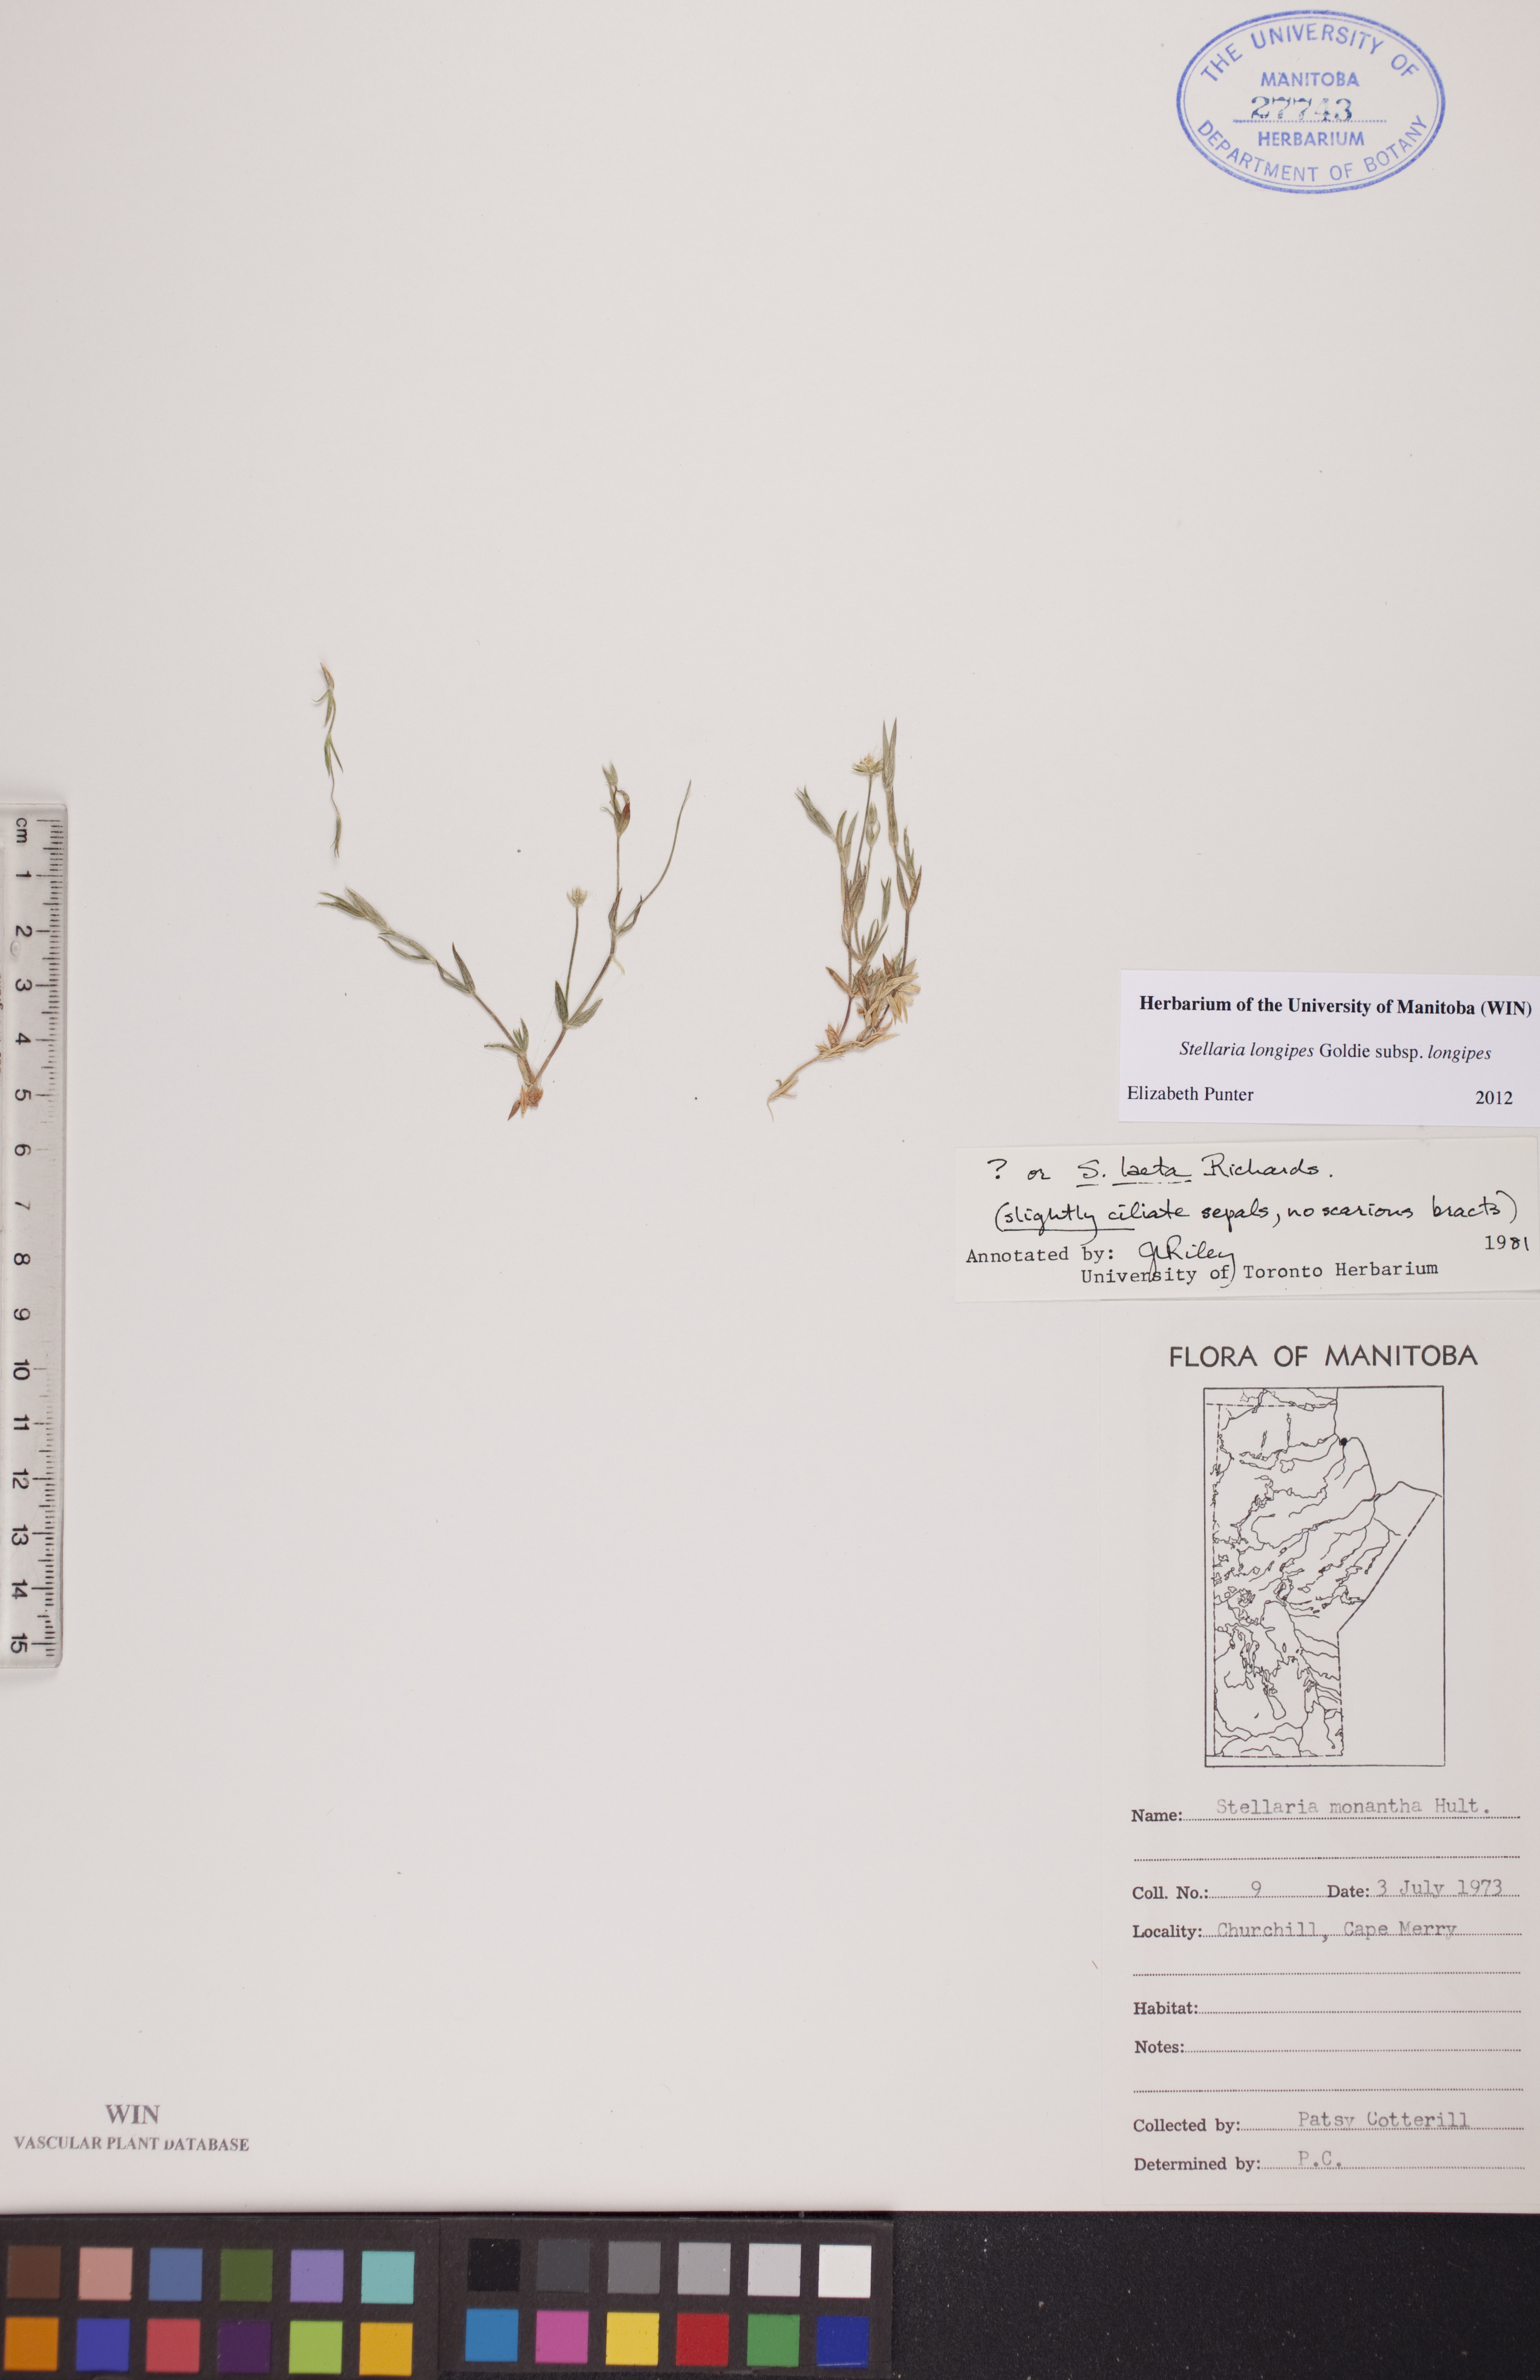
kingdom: Plantae
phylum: Tracheophyta
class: Magnoliopsida
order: Caryophyllales
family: Caryophyllaceae
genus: Stellaria
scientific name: Stellaria longipes
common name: Goldie's starwort
